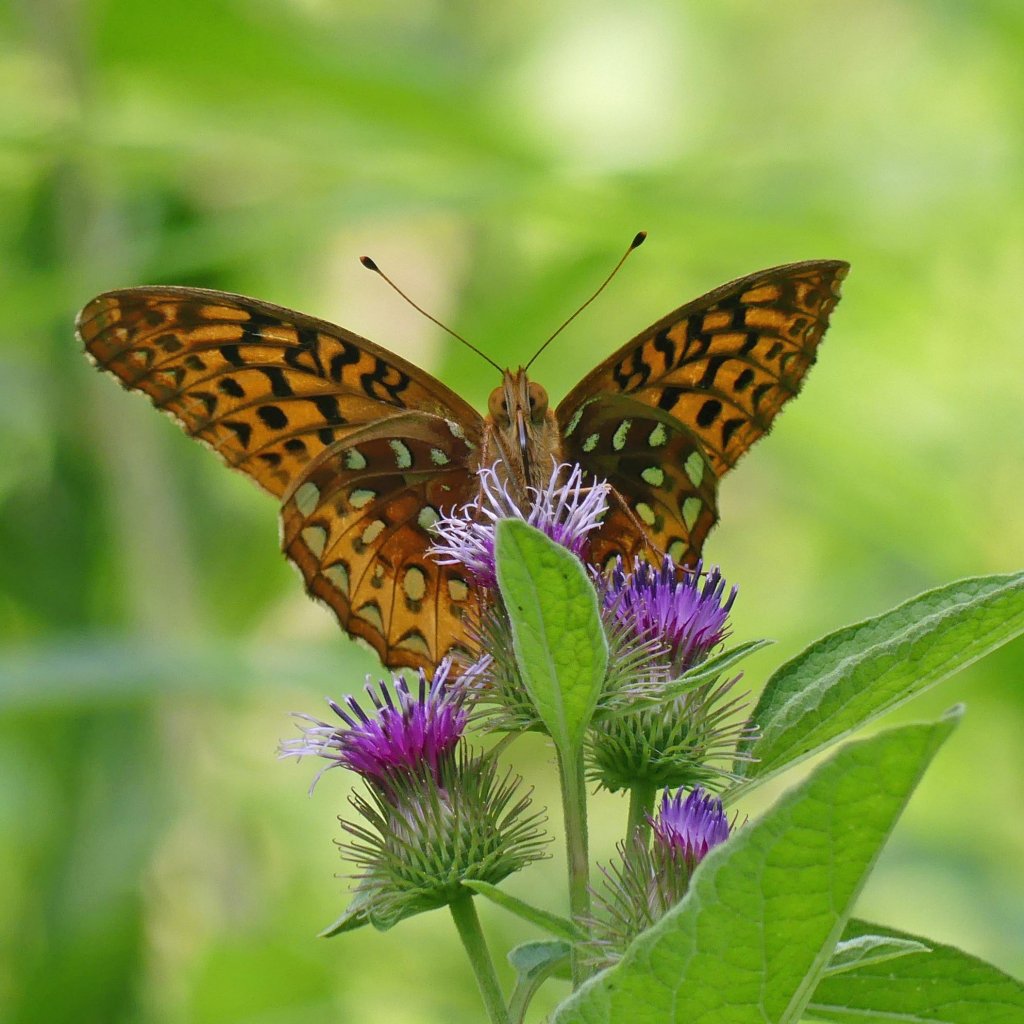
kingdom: Animalia
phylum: Arthropoda
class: Insecta
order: Lepidoptera
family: Nymphalidae
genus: Speyeria
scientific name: Speyeria cybele
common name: Great Spangled Fritillary
